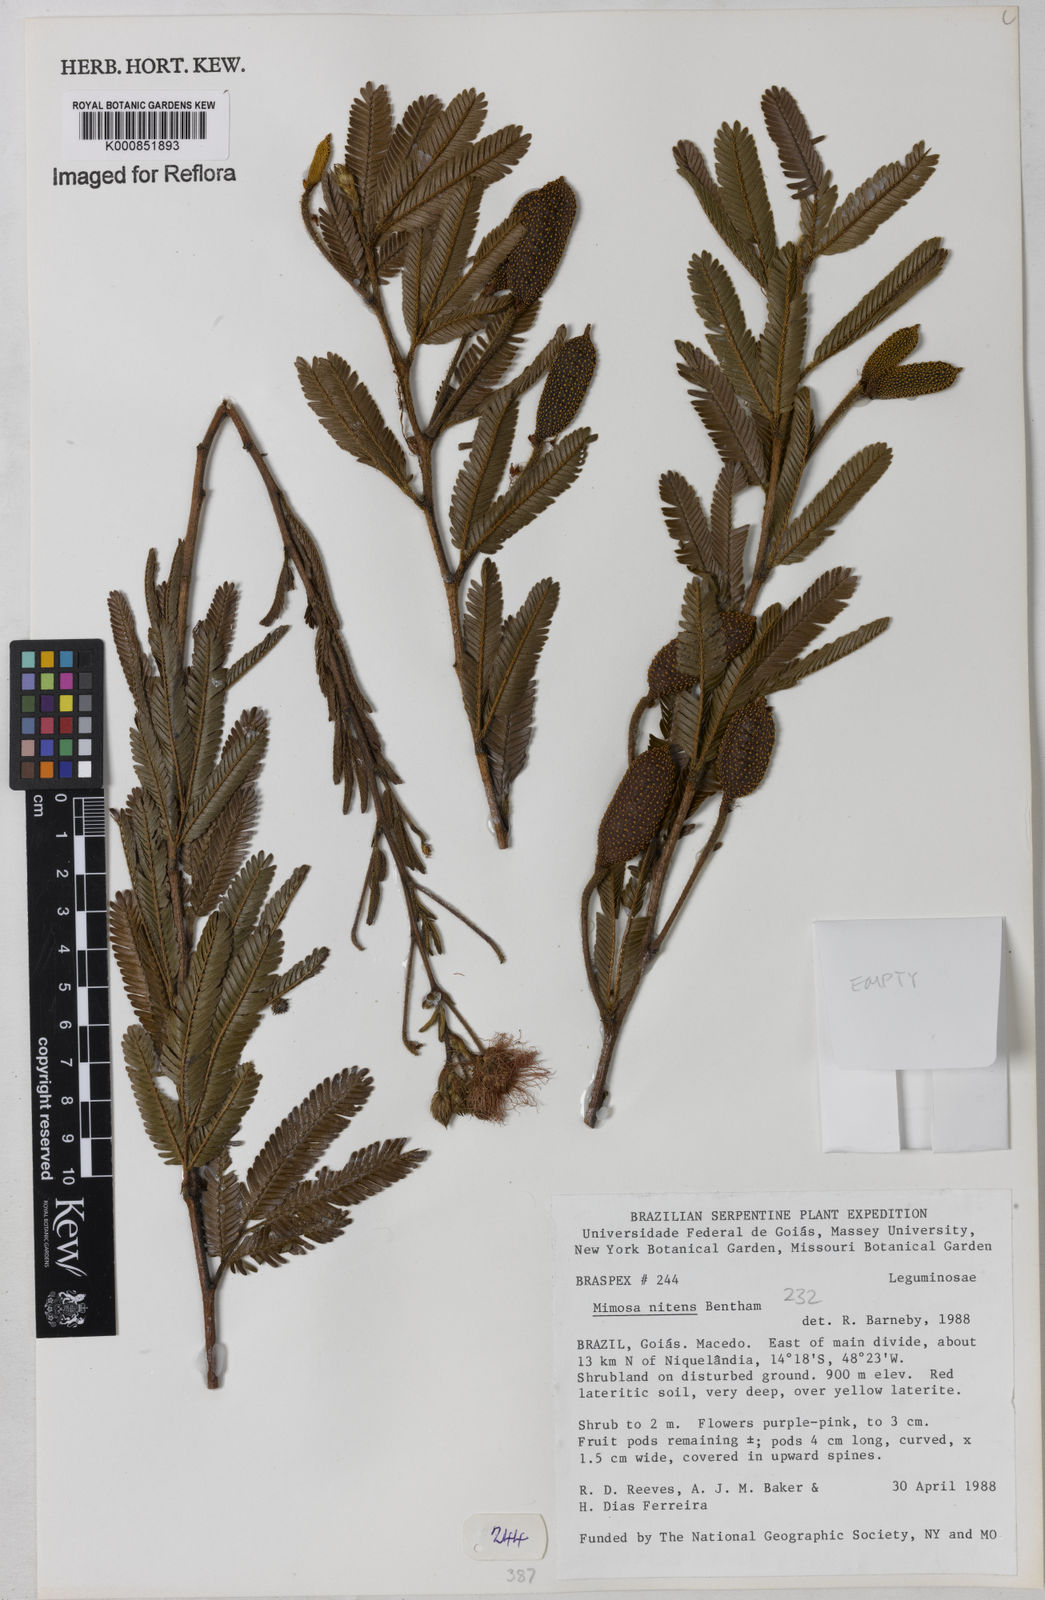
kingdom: Plantae
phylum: Tracheophyta
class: Magnoliopsida
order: Fabales
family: Fabaceae
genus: Mimosa
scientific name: Mimosa foliolosa
